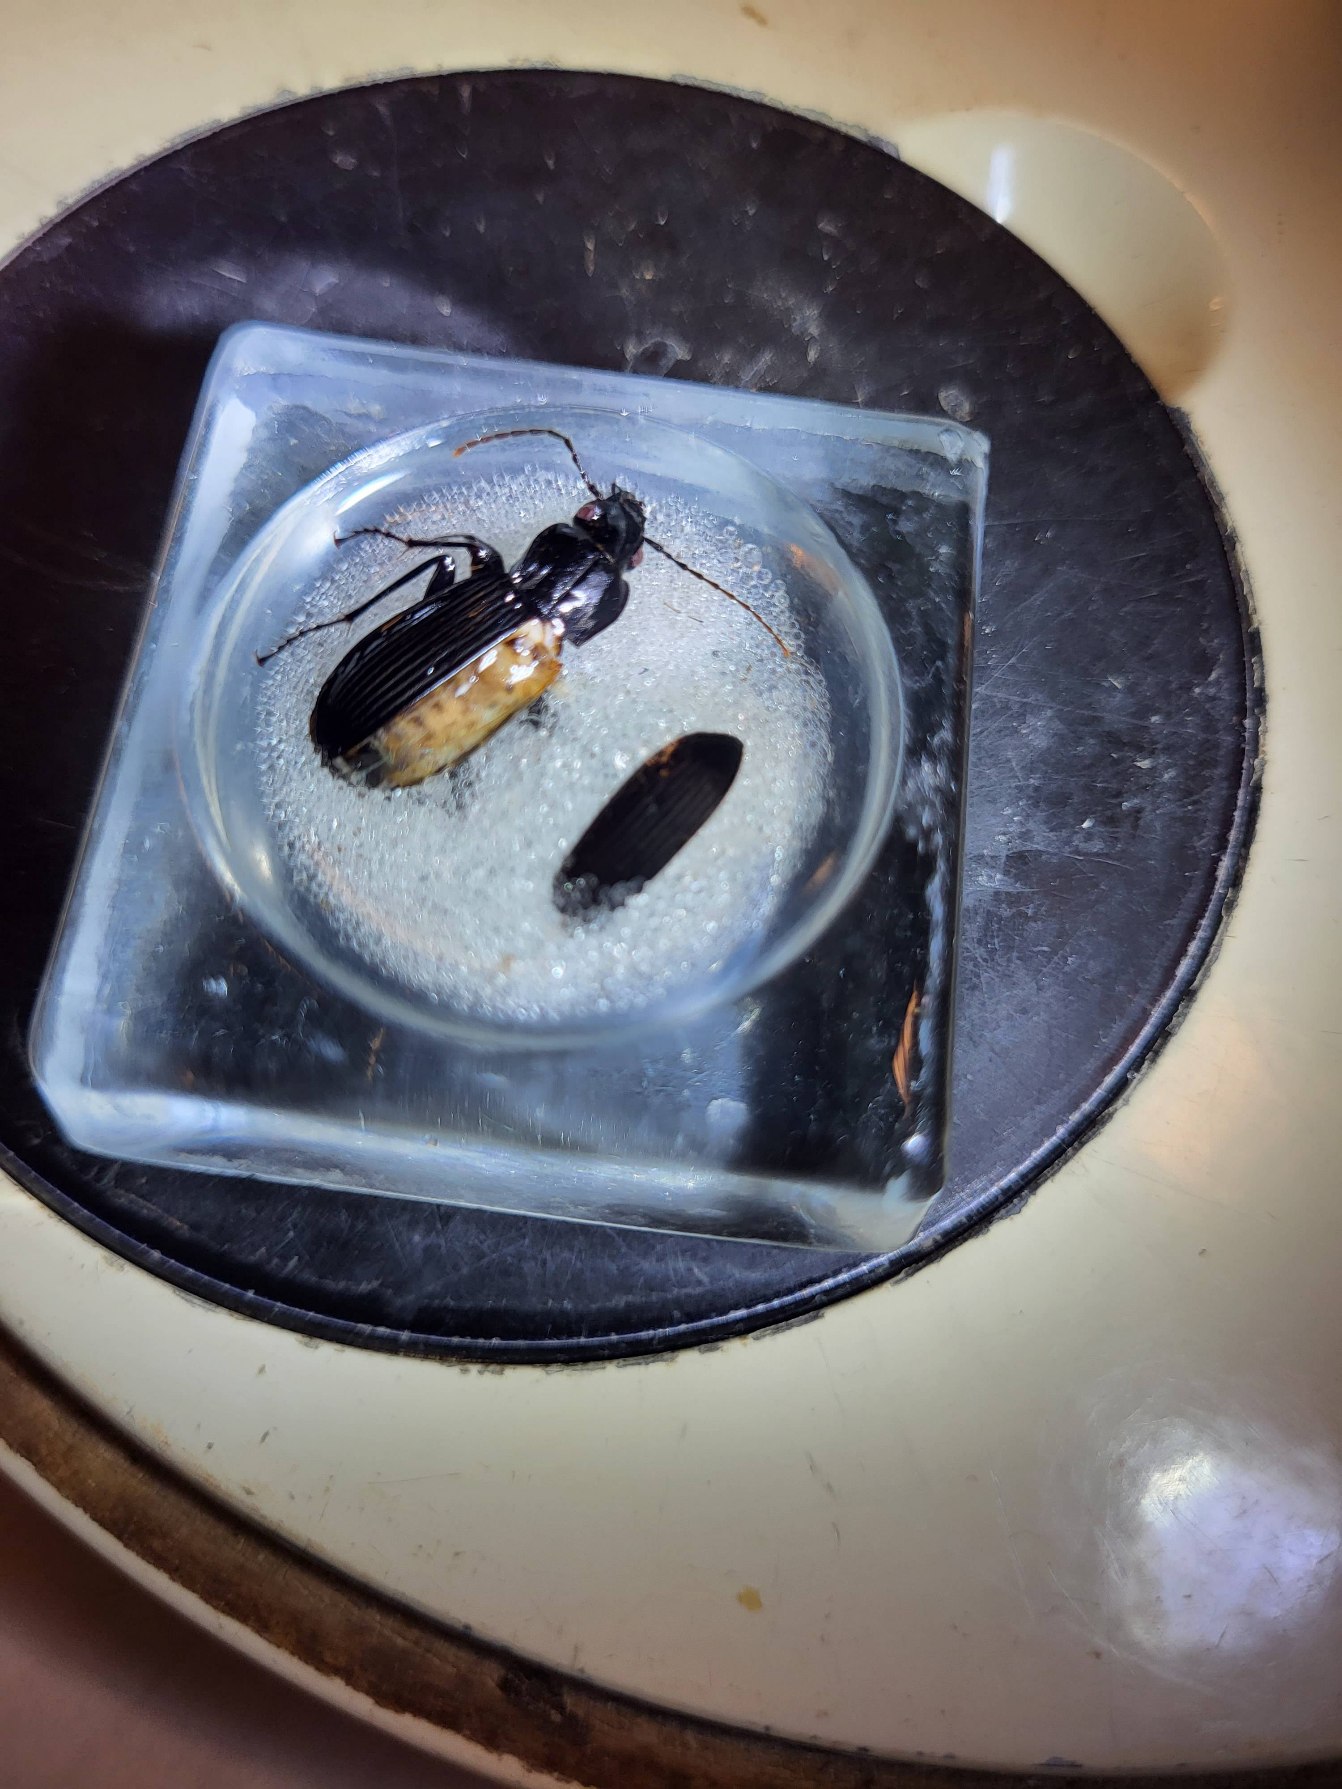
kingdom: Animalia
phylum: Arthropoda
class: Insecta
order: Coleoptera
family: Carabidae
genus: Pterostichus
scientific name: Pterostichus niger
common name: Skovjordløber
